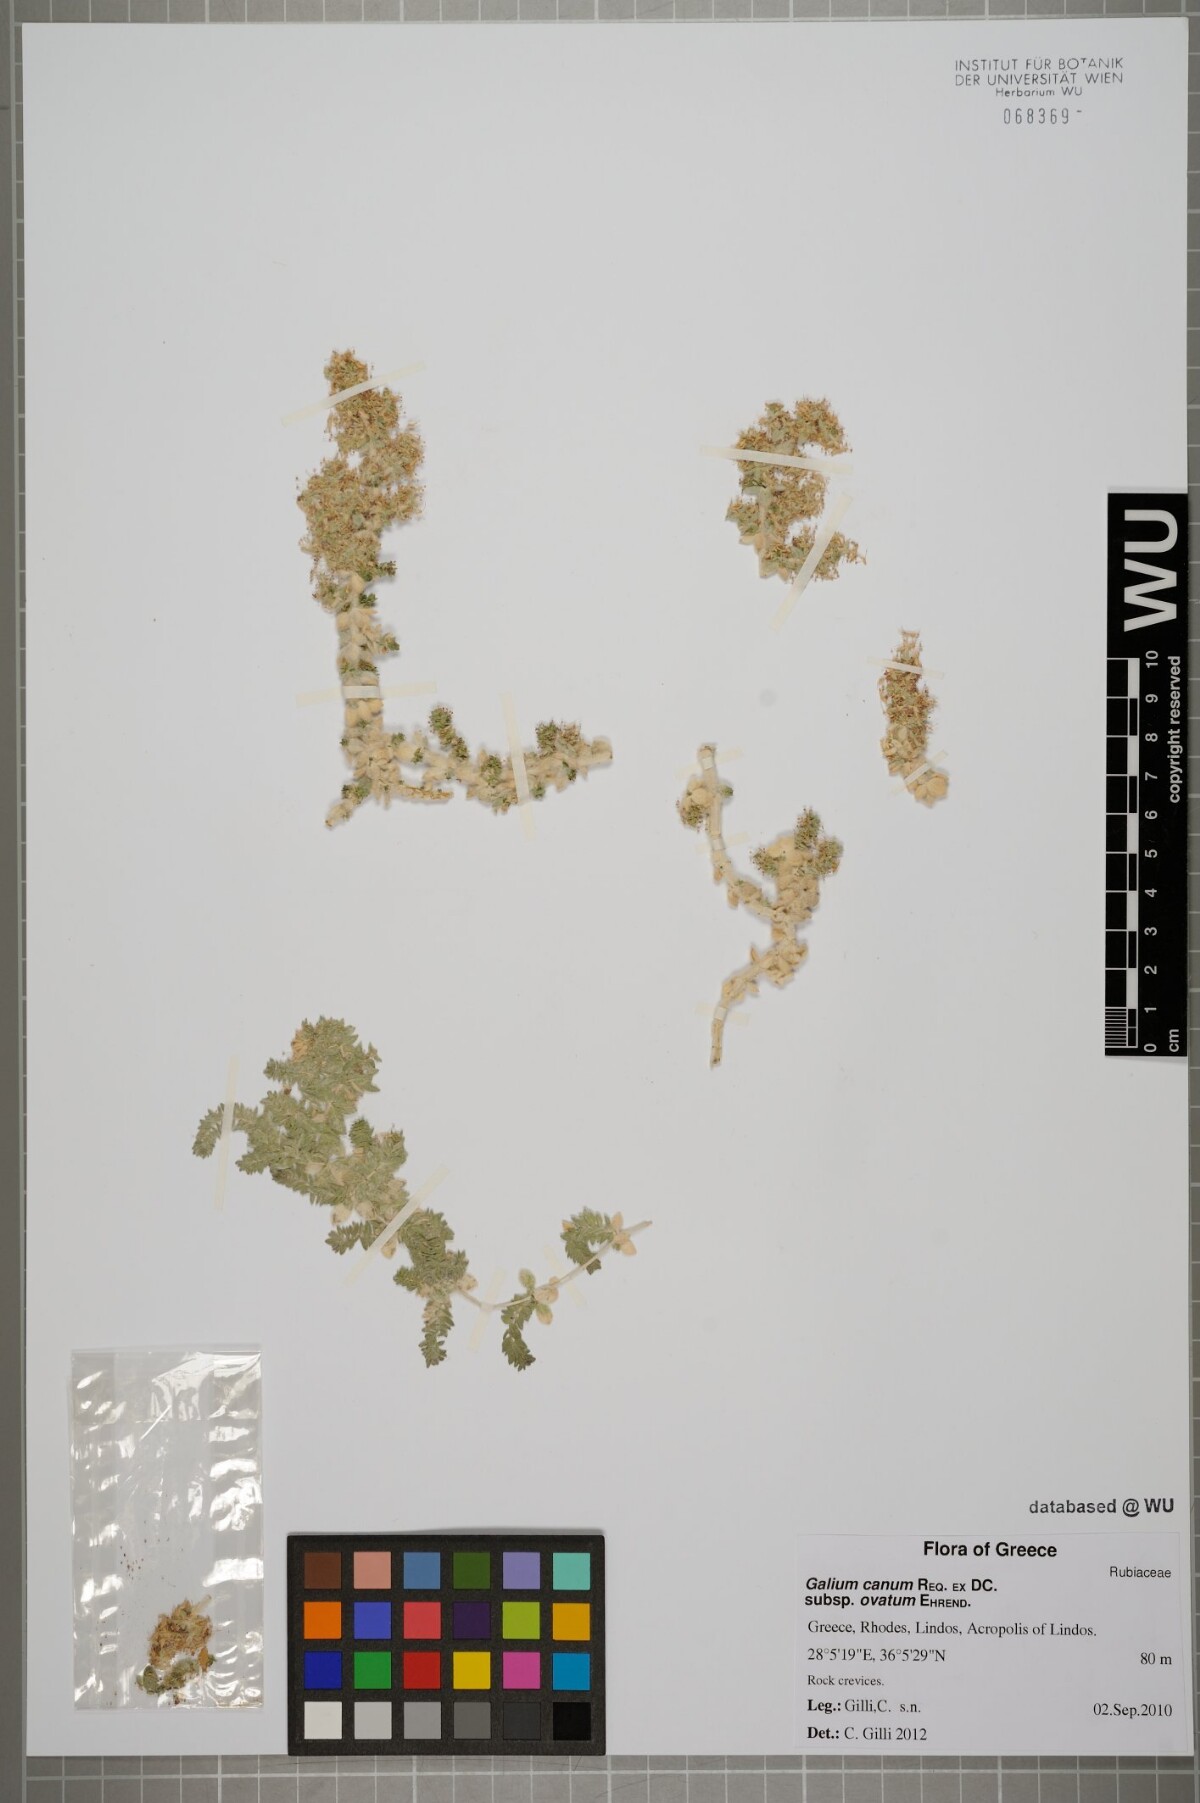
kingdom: Plantae
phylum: Tracheophyta
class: Magnoliopsida
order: Gentianales
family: Rubiaceae
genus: Galium
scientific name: Galium canum
